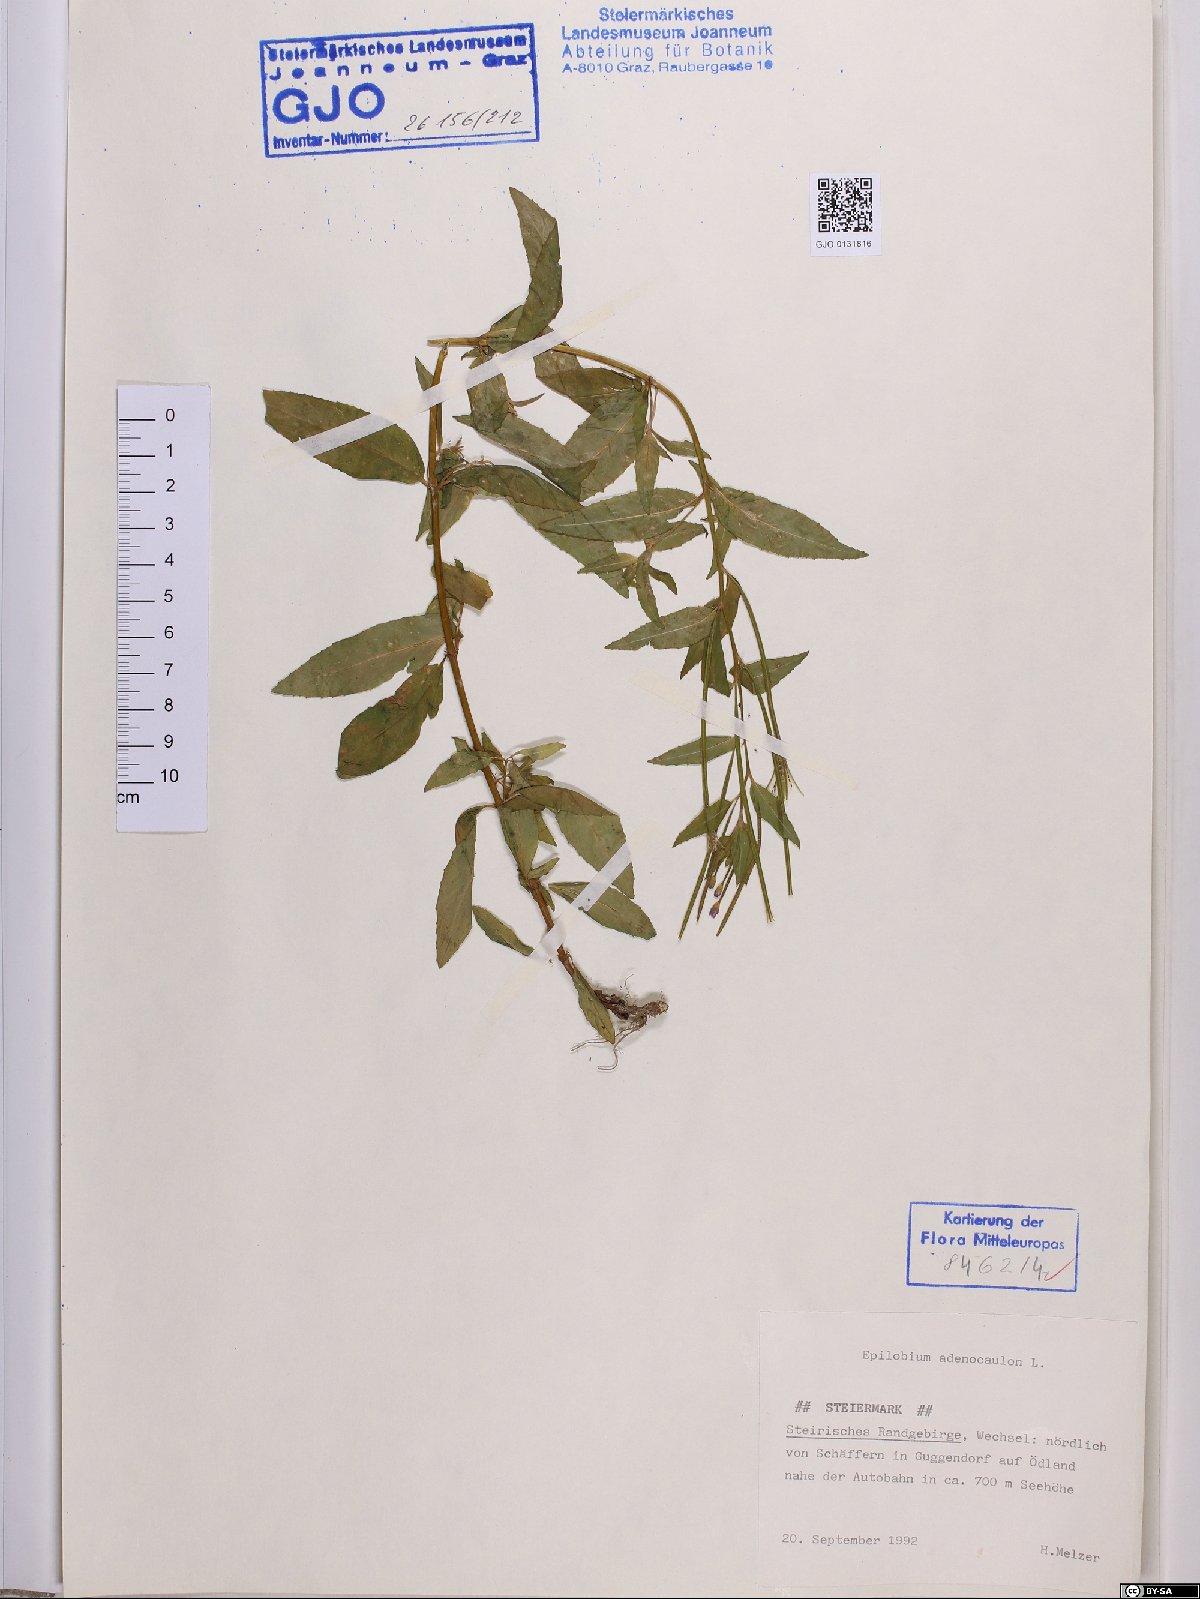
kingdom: Plantae
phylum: Tracheophyta
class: Magnoliopsida
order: Myrtales
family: Onagraceae
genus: Epilobium
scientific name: Epilobium ciliatum
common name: American willowherb
